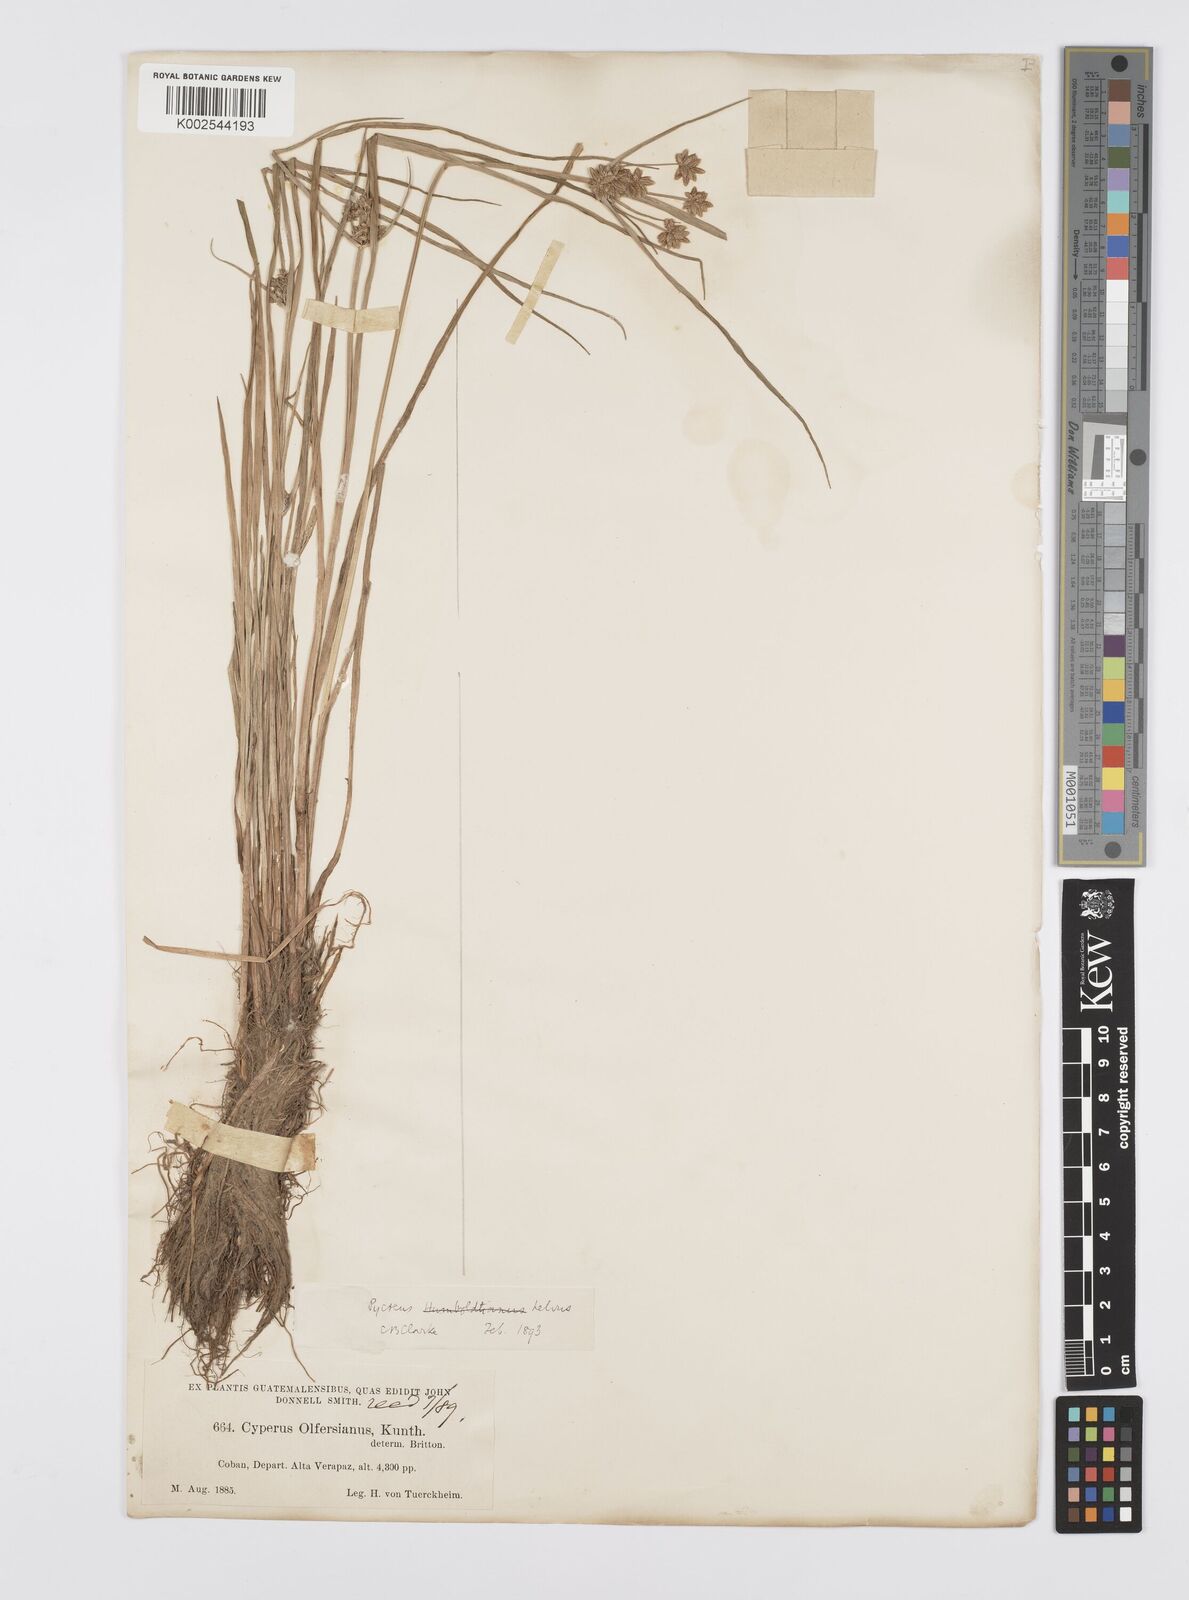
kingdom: Plantae
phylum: Tracheophyta
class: Liliopsida
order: Poales
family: Cyperaceae
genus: Cyperus
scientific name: Cyperus
